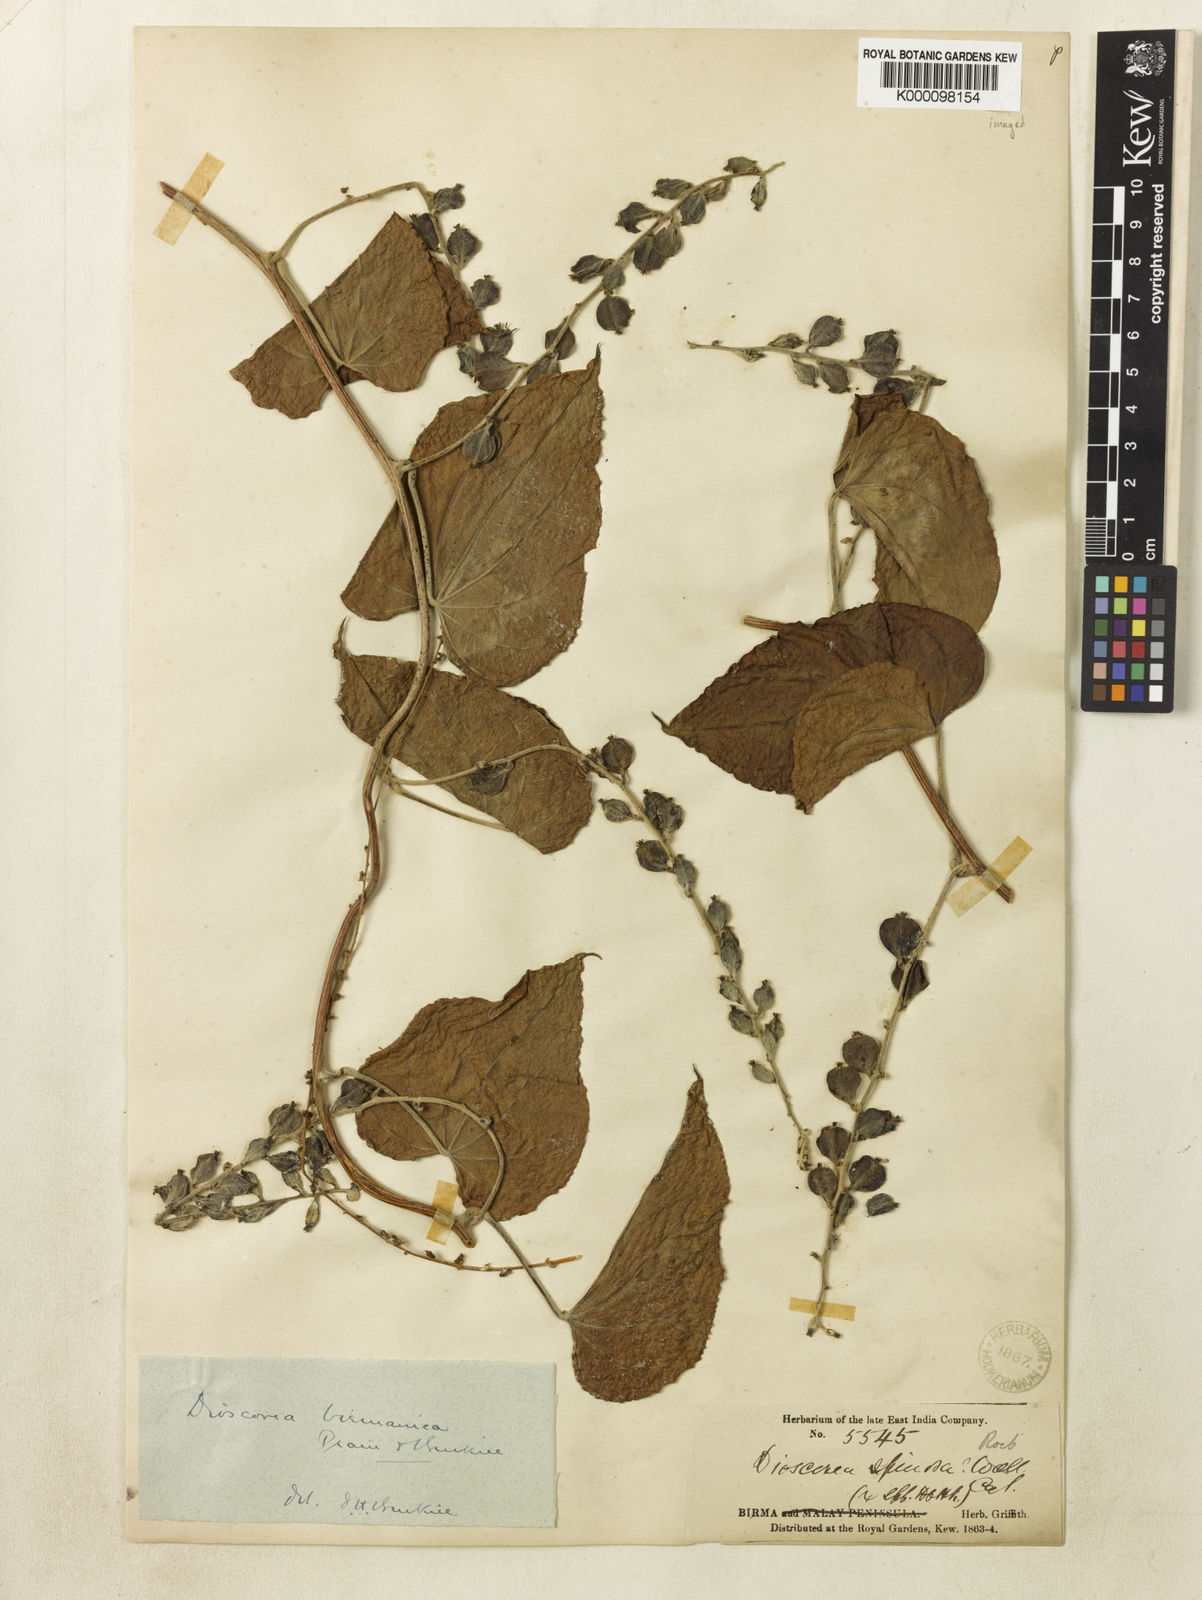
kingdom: Plantae
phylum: Tracheophyta
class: Liliopsida
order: Dioscoreales
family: Dioscoreaceae
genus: Dioscorea
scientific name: Dioscorea birmanica
